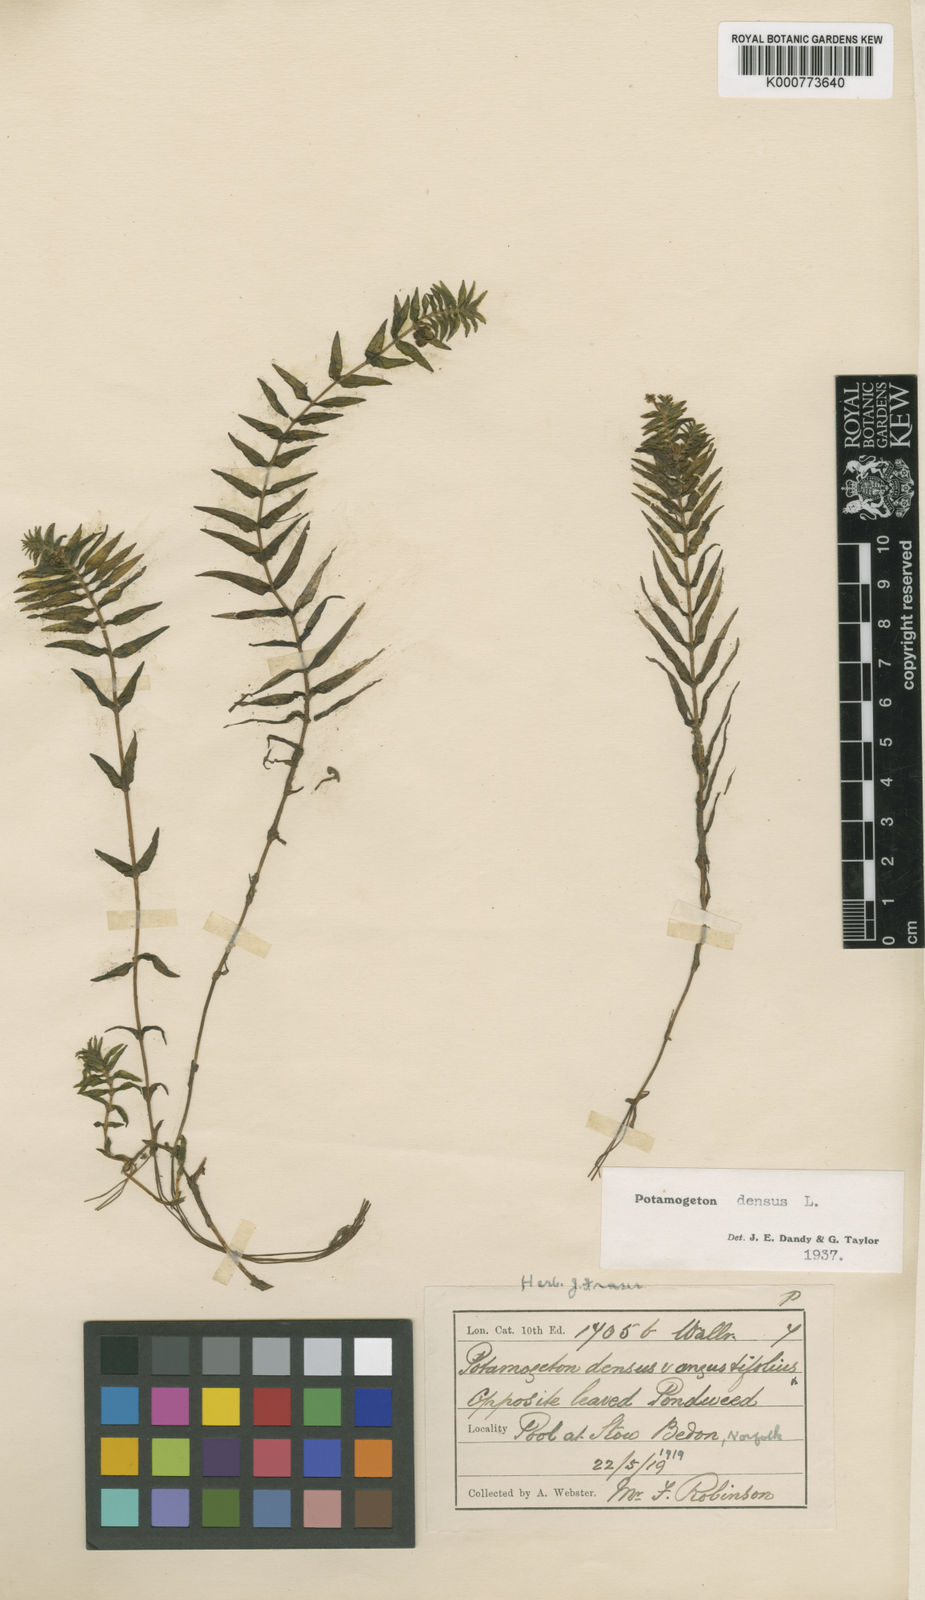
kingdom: Plantae
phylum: Tracheophyta
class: Liliopsida
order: Alismatales
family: Potamogetonaceae
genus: Groenlandia
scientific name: Groenlandia densa
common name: Opposite-leaved pondweed
